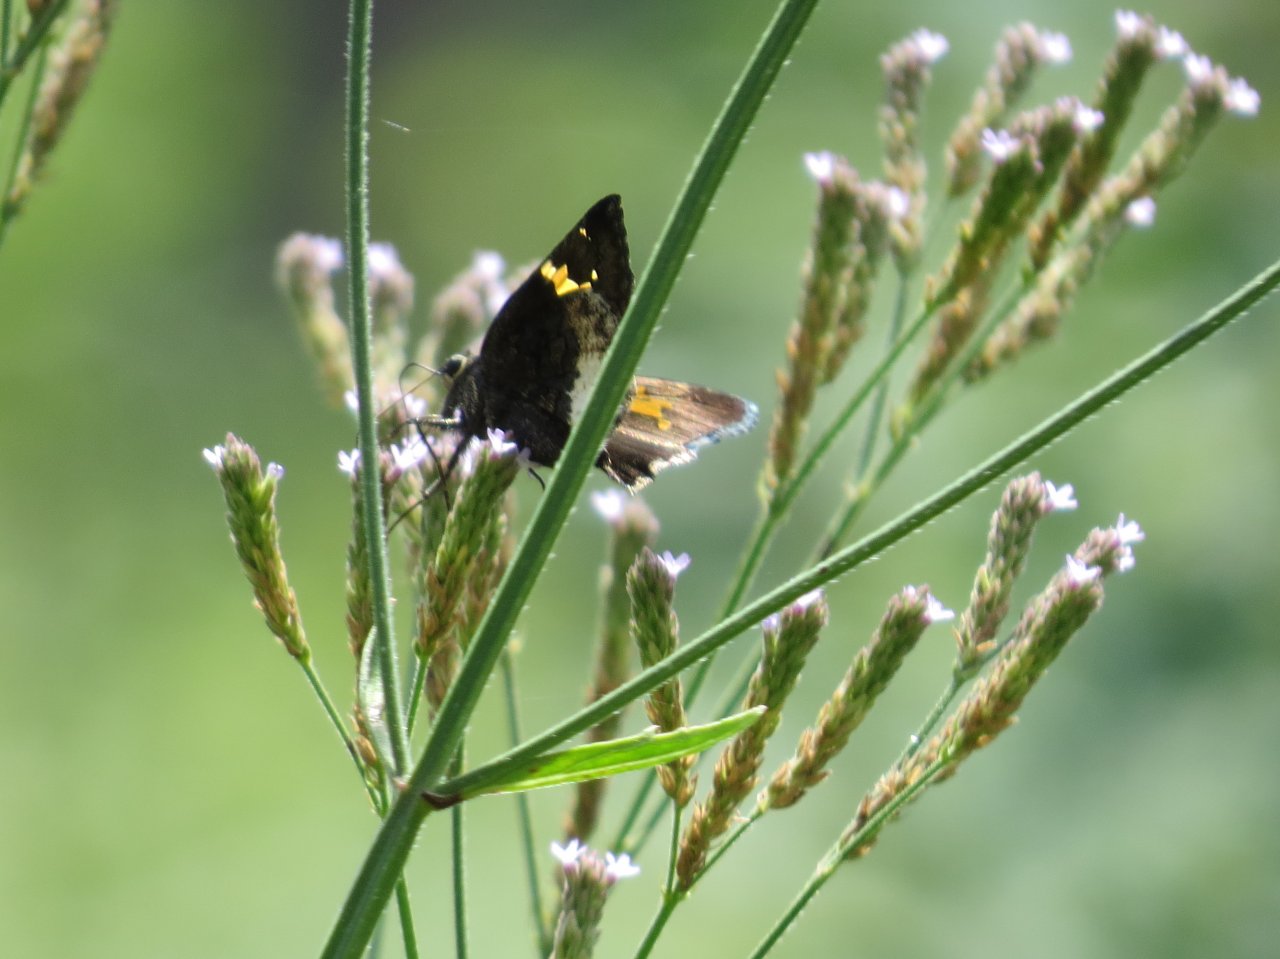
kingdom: Animalia
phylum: Arthropoda
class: Insecta
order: Lepidoptera
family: Hesperiidae
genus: Achalarus
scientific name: Achalarus lyciades
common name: Hoary Edge
